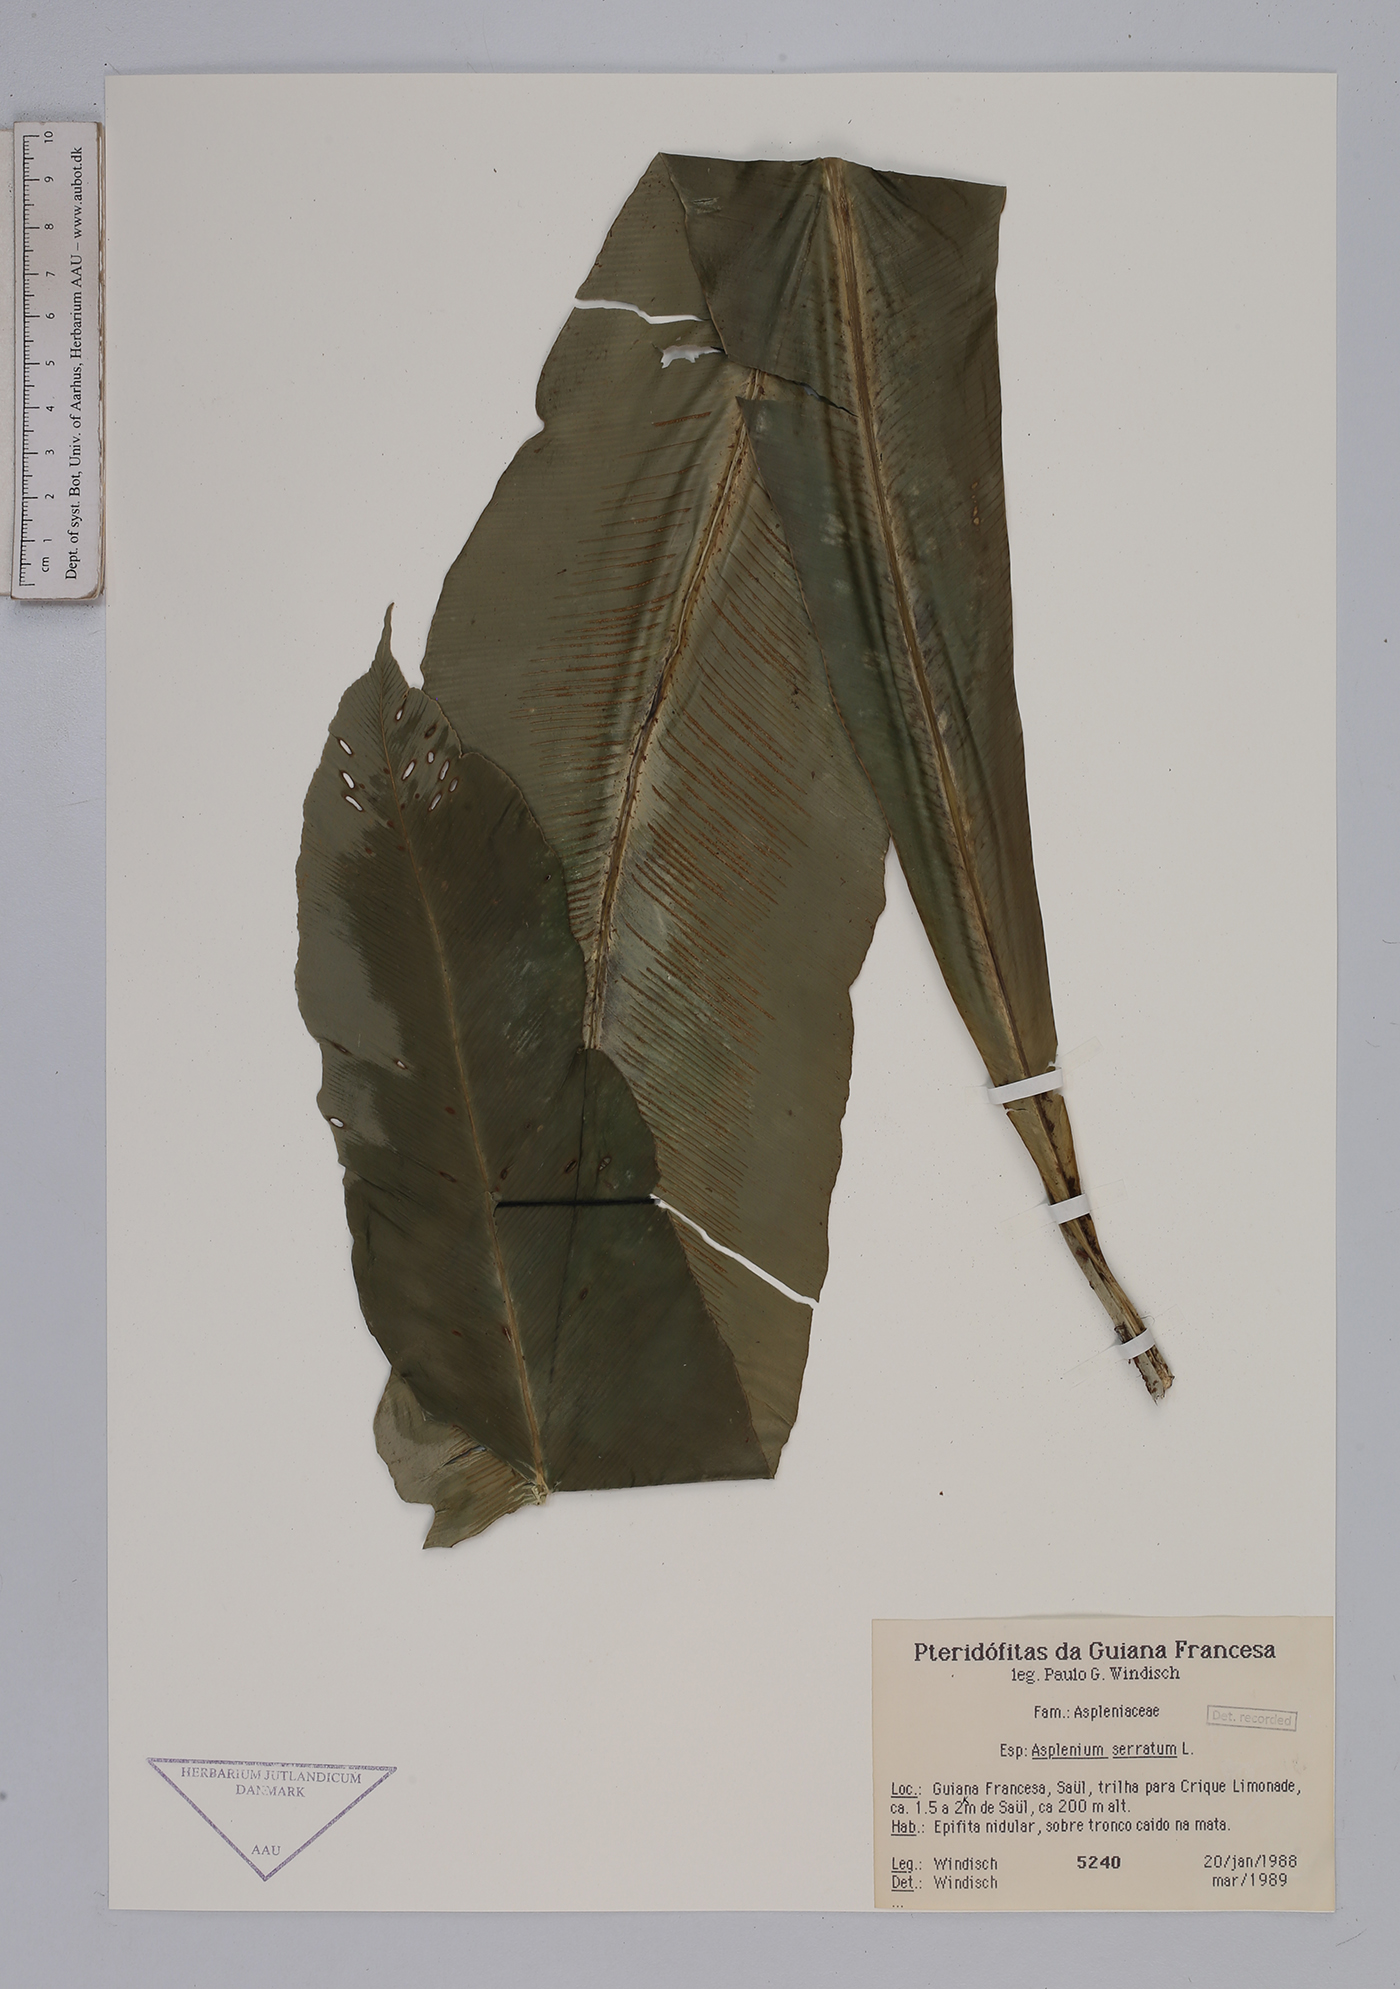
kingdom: Plantae
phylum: Tracheophyta
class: Polypodiopsida
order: Polypodiales
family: Aspleniaceae
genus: Asplenium
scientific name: Asplenium serratum
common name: Wild birdnest fern
